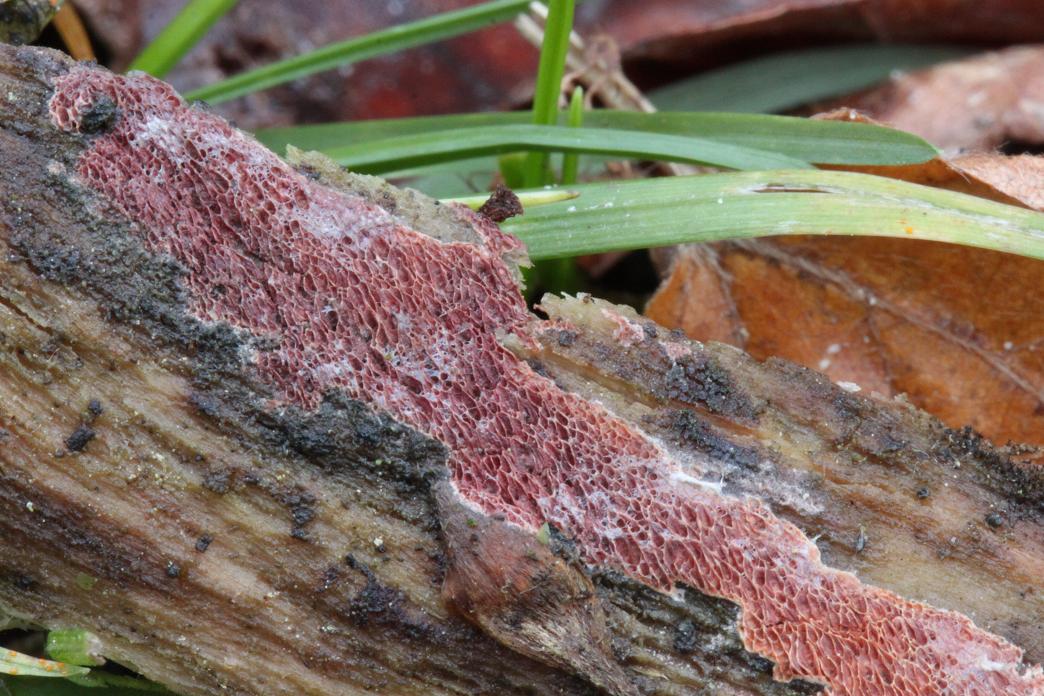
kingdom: Fungi
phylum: Basidiomycota
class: Agaricomycetes
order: Polyporales
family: Irpicaceae
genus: Ceriporia
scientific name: Ceriporia purpurea
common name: purpur-voksporesvamp
